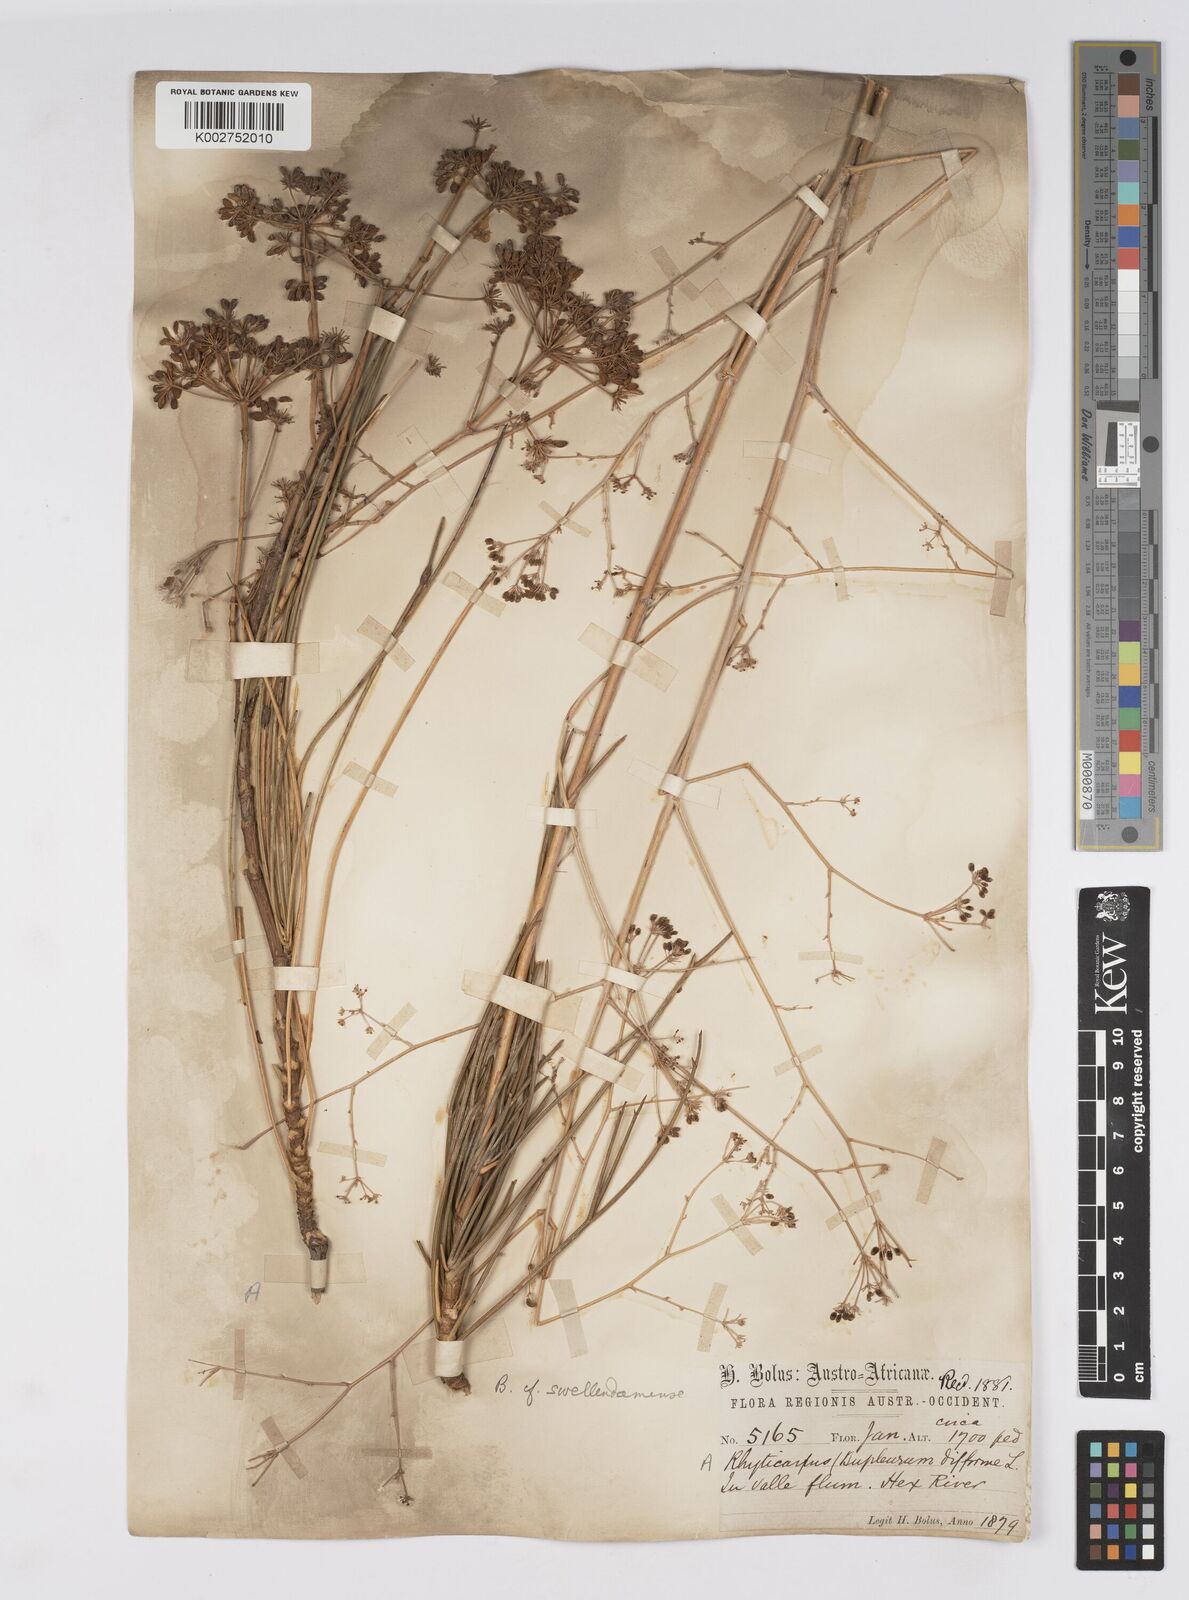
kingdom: Plantae
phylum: Tracheophyta
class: Magnoliopsida
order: Apiales
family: Apiaceae
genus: Anginon
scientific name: Anginon difforme
